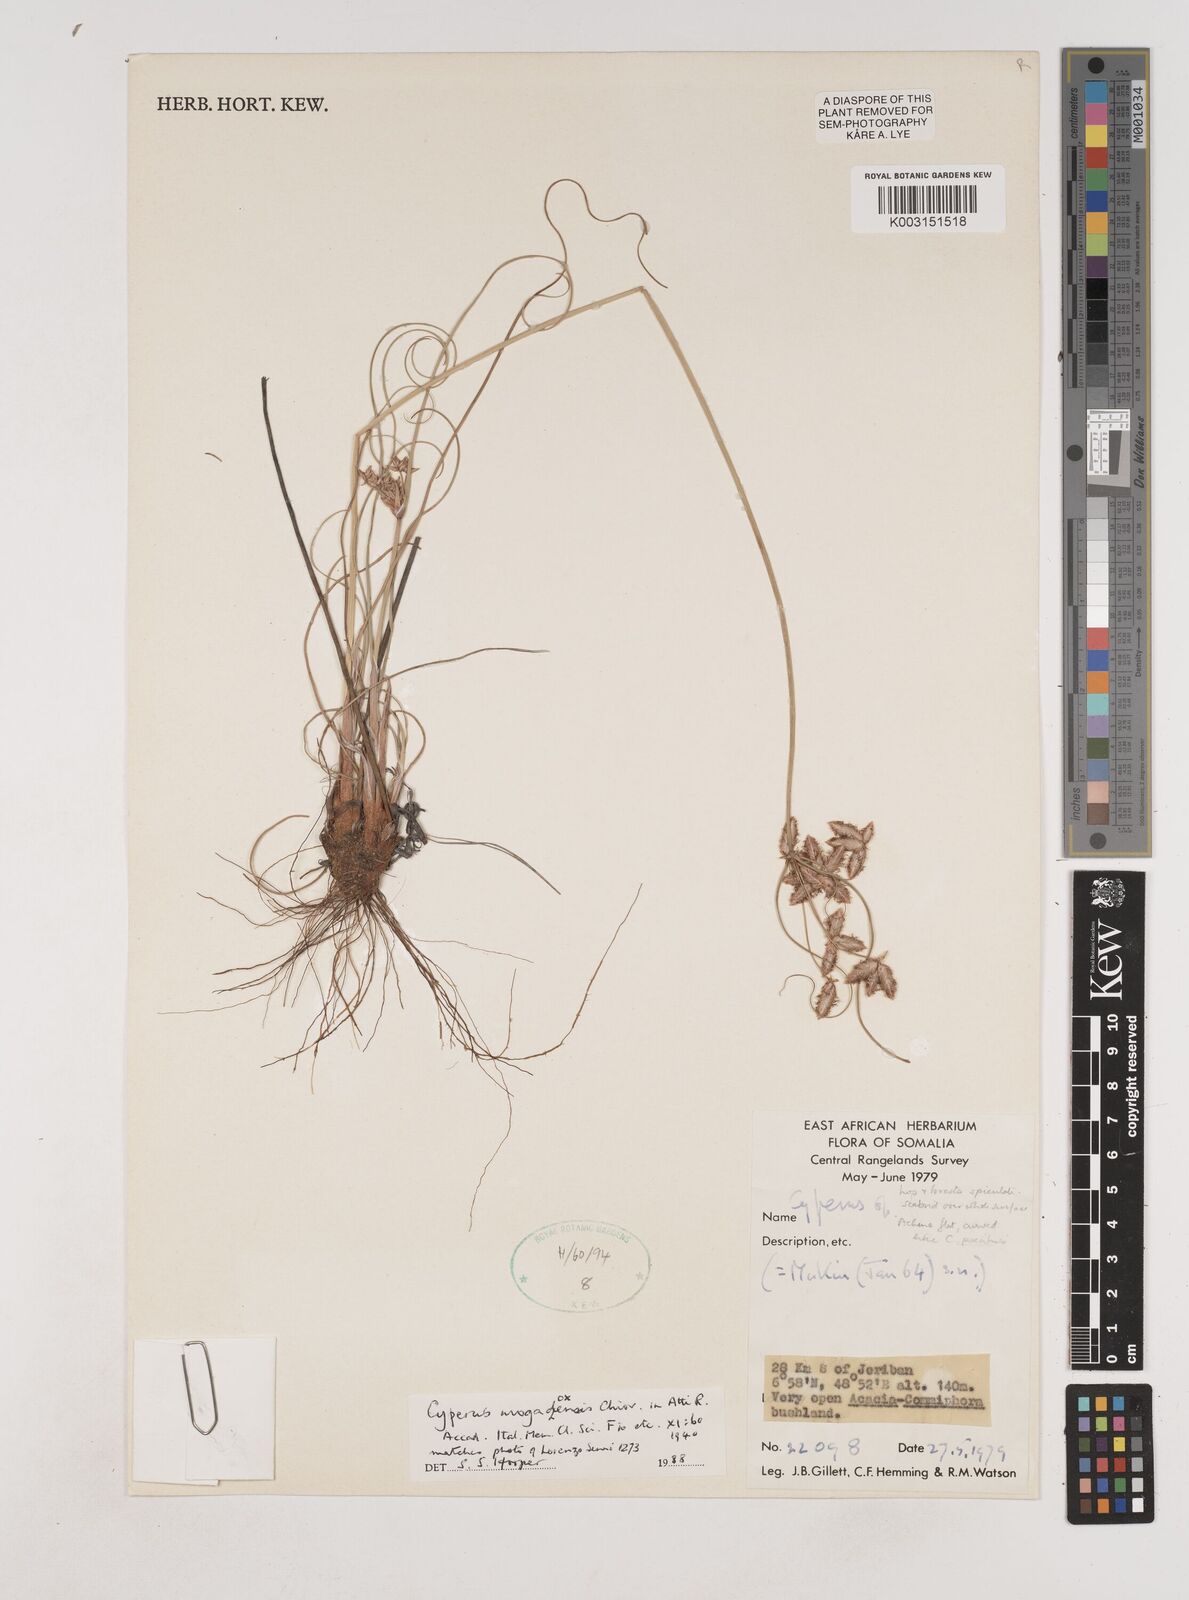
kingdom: Plantae
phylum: Tracheophyta
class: Liliopsida
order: Poales
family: Cyperaceae
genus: Cyperus
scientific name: Cyperus mogadoxensis
